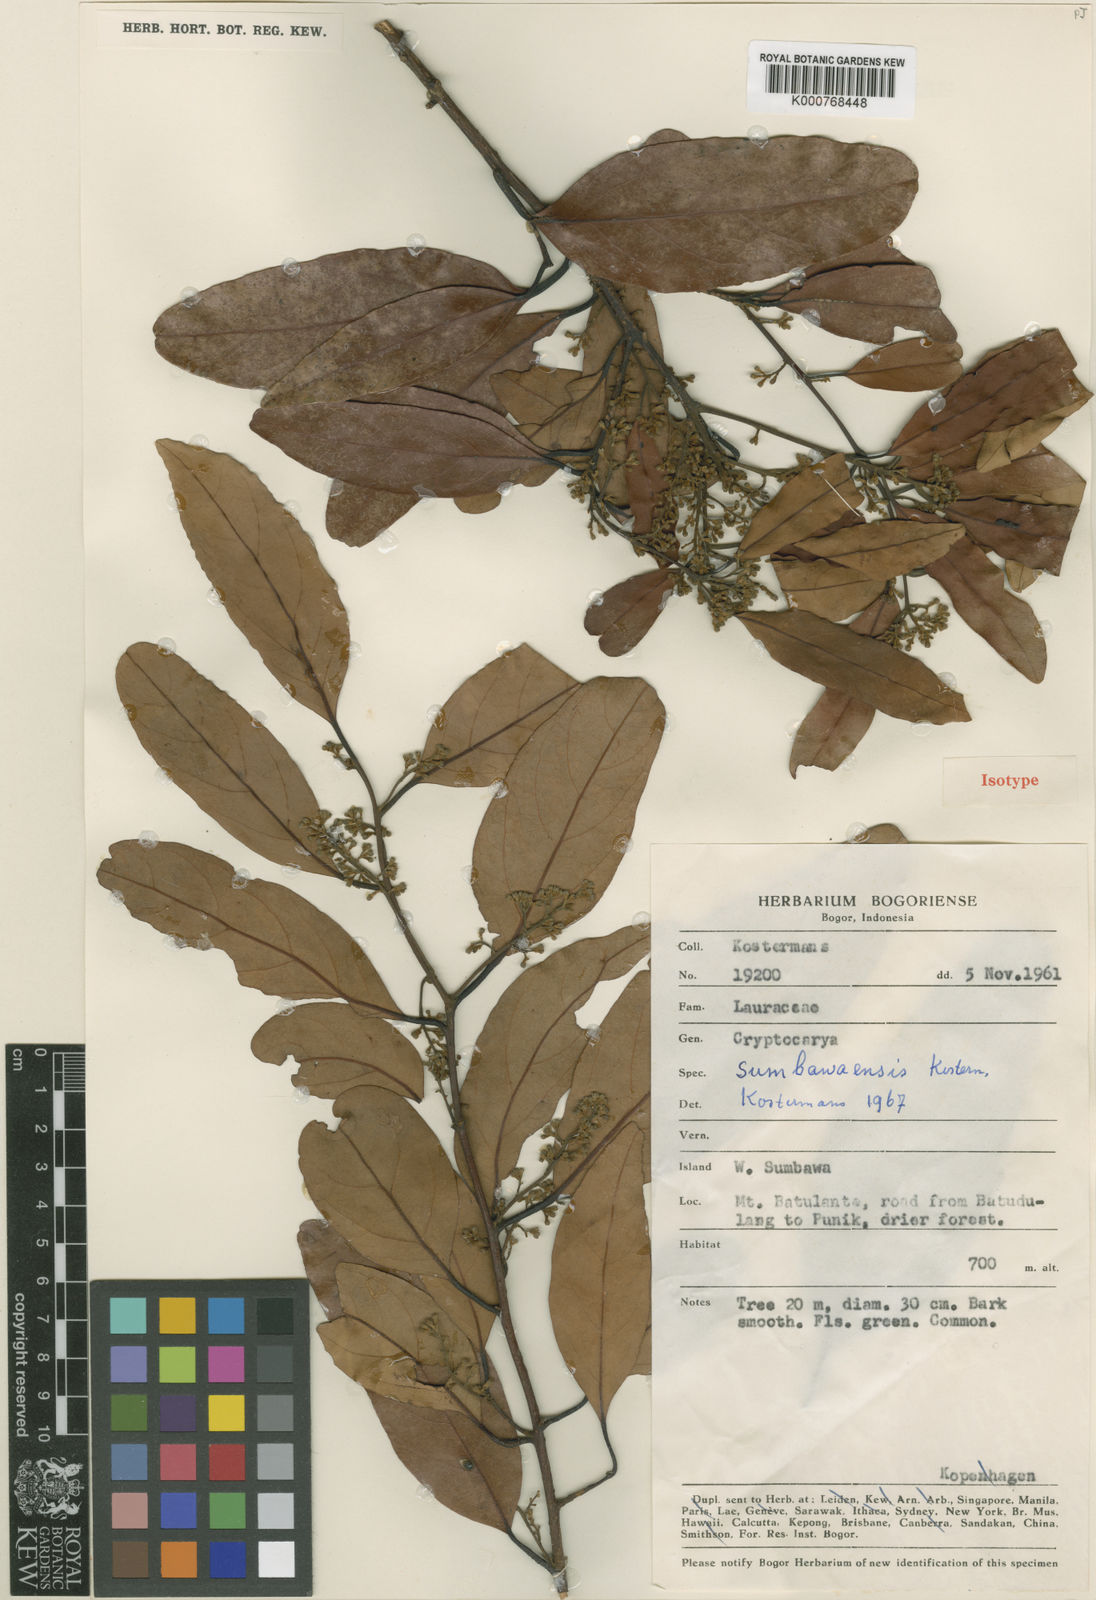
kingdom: Plantae
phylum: Tracheophyta
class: Magnoliopsida
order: Laurales
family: Lauraceae
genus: Cryptocarya
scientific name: Cryptocarya sumbawaensis
